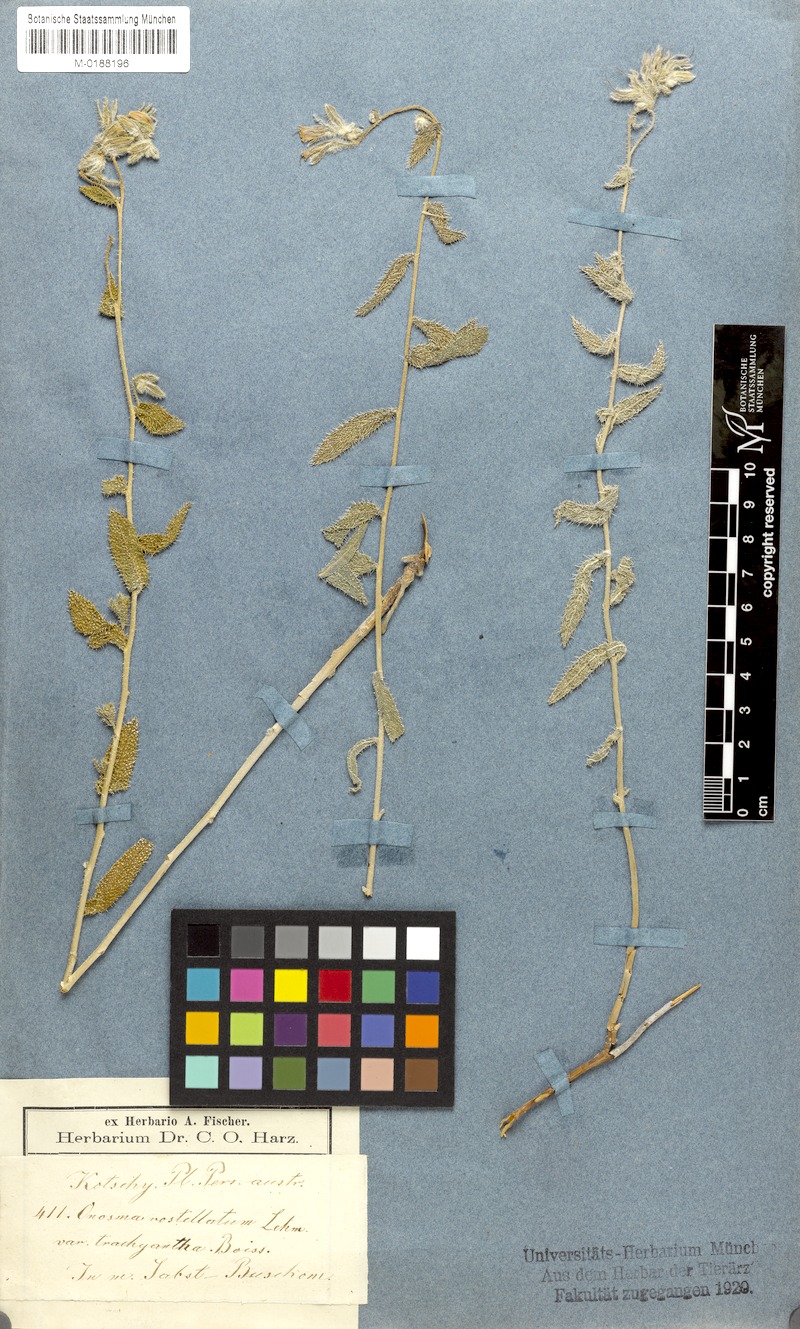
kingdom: Plantae
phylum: Tracheophyta
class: Magnoliopsida
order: Boraginales
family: Boraginaceae
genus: Onosma
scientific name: Onosma kotschyi
